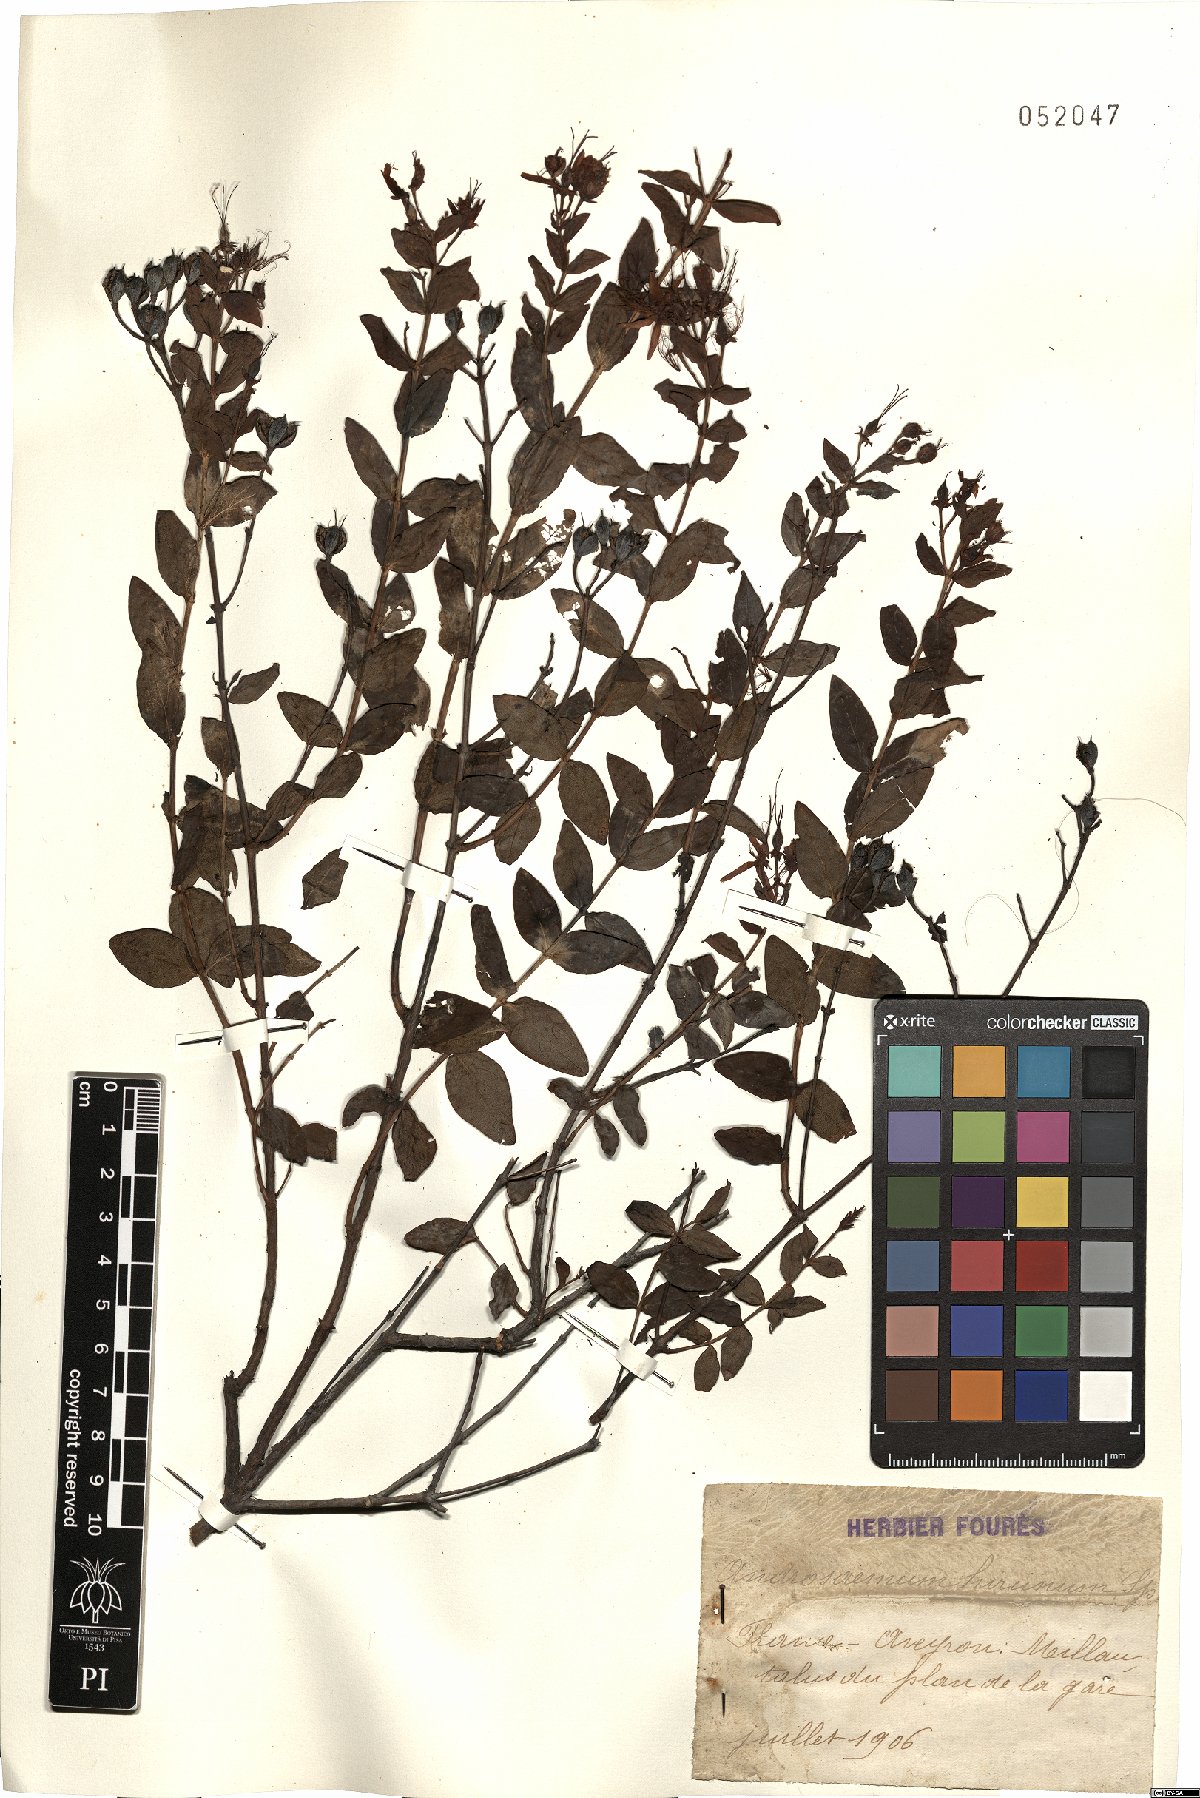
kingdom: Plantae
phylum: Tracheophyta
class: Magnoliopsida
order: Malpighiales
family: Hypericaceae
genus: Hypericum
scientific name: Hypericum hircinum
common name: Stinking tutsan
